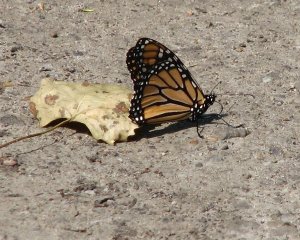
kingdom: Animalia
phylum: Arthropoda
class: Insecta
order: Lepidoptera
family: Nymphalidae
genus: Danaus
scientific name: Danaus plexippus
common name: Monarch
